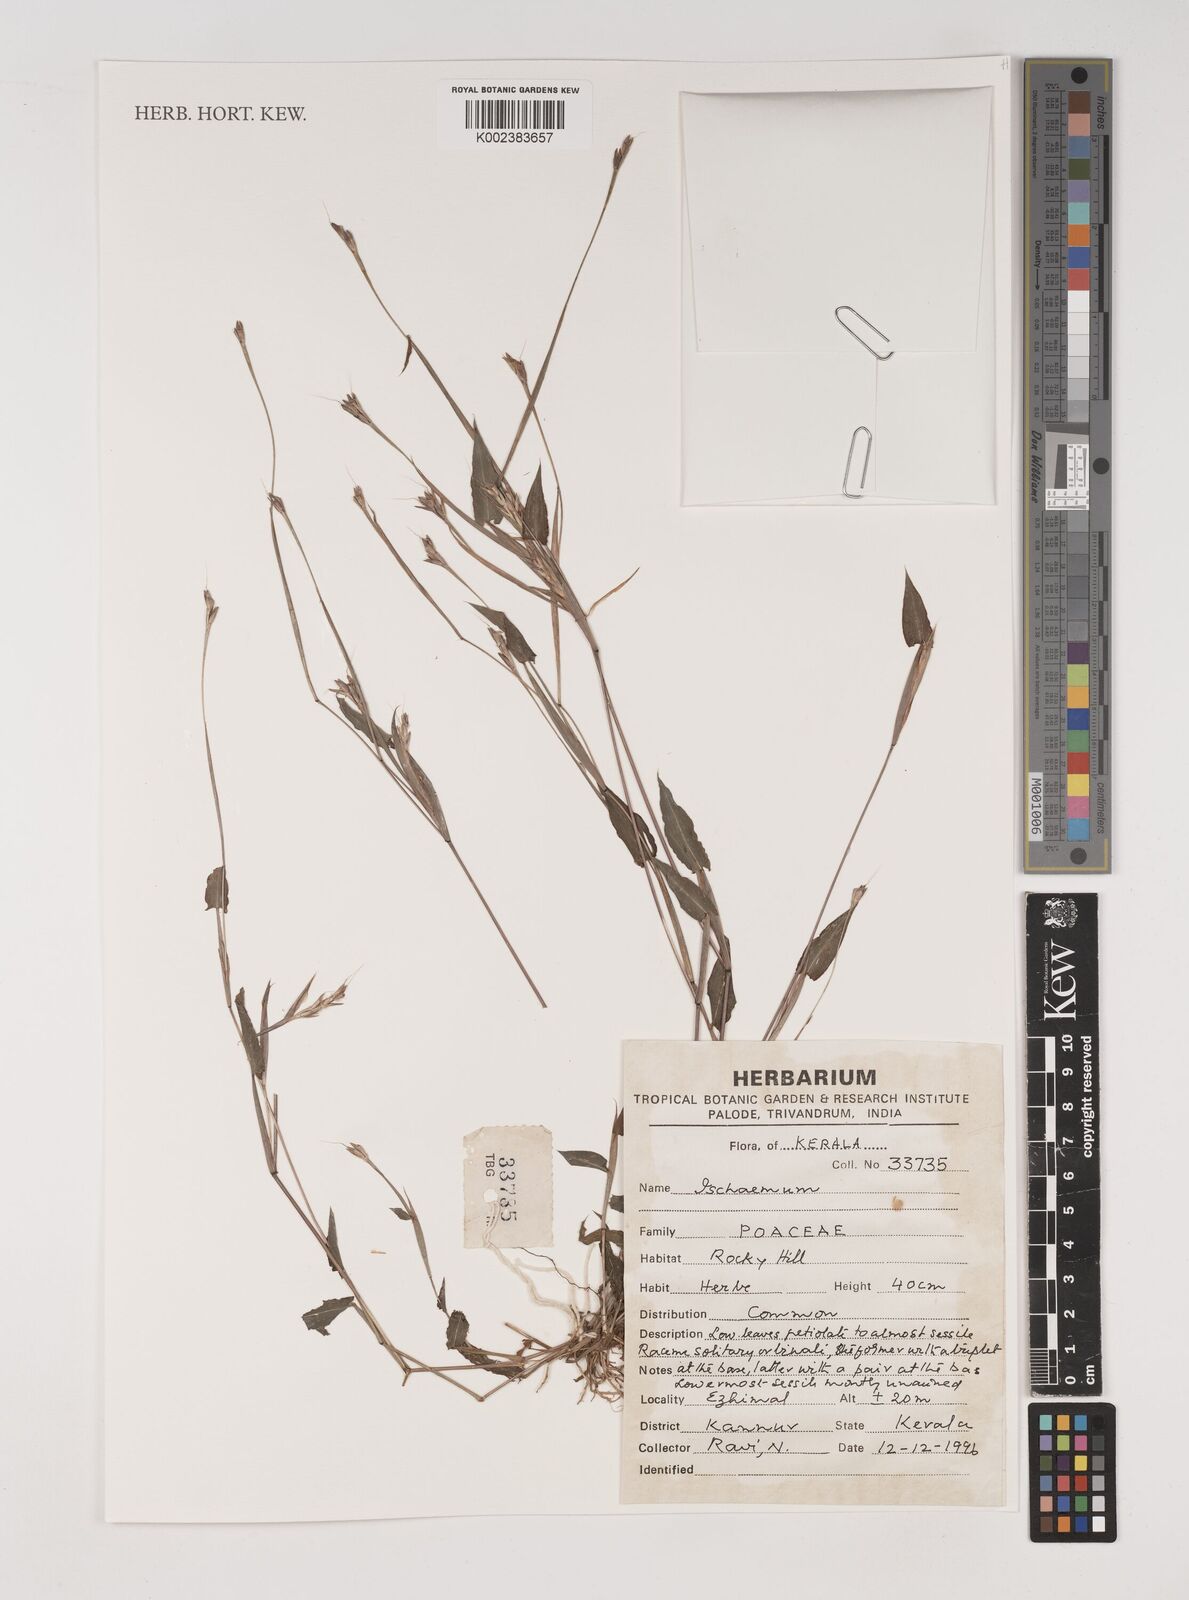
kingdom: Plantae
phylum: Tracheophyta
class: Liliopsida
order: Poales
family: Poaceae
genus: Ischaemum
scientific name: Ischaemum
